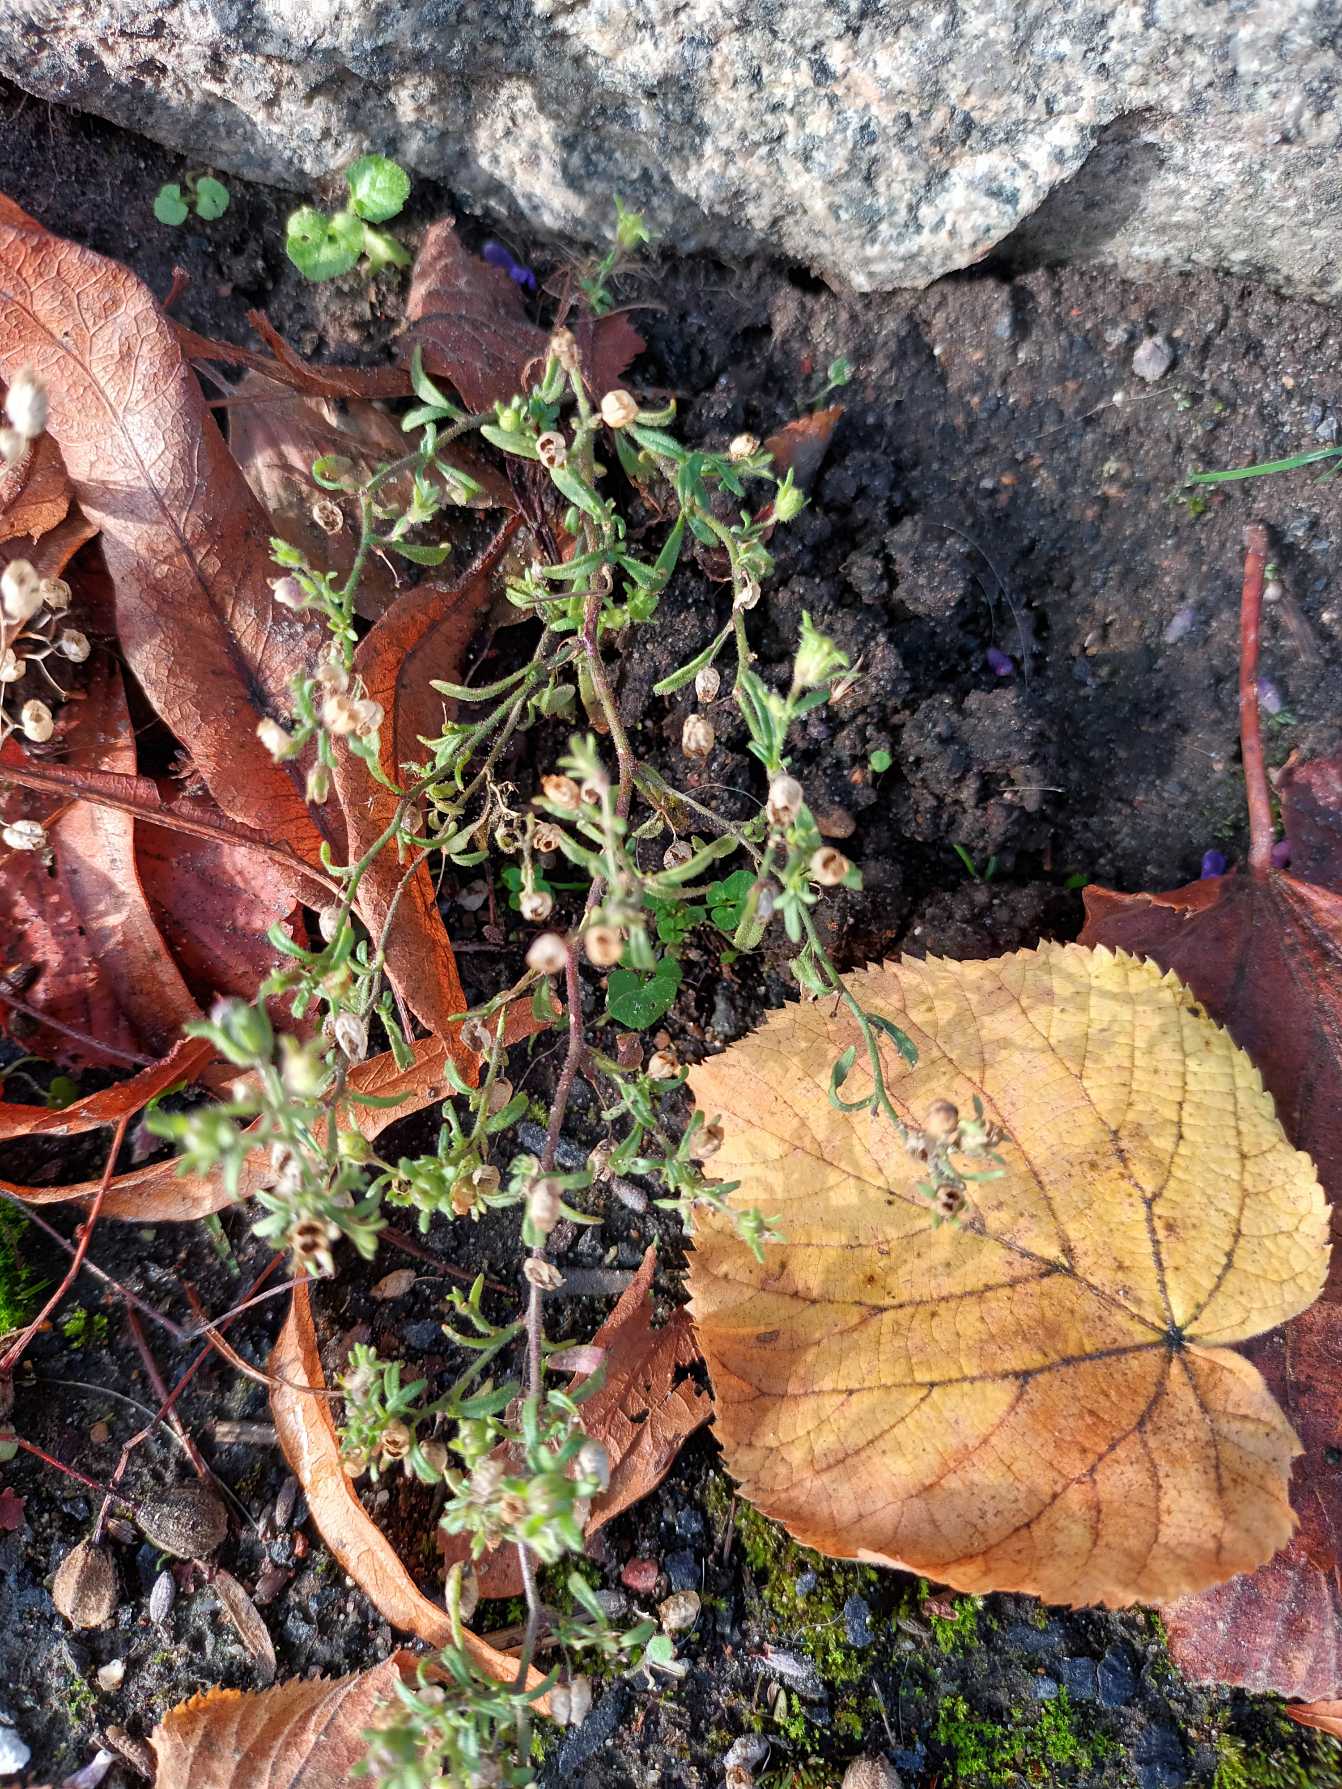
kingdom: Plantae
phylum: Tracheophyta
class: Magnoliopsida
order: Lamiales
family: Plantaginaceae
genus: Chaenorhinum
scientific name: Chaenorhinum minus
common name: Liden torskemund
